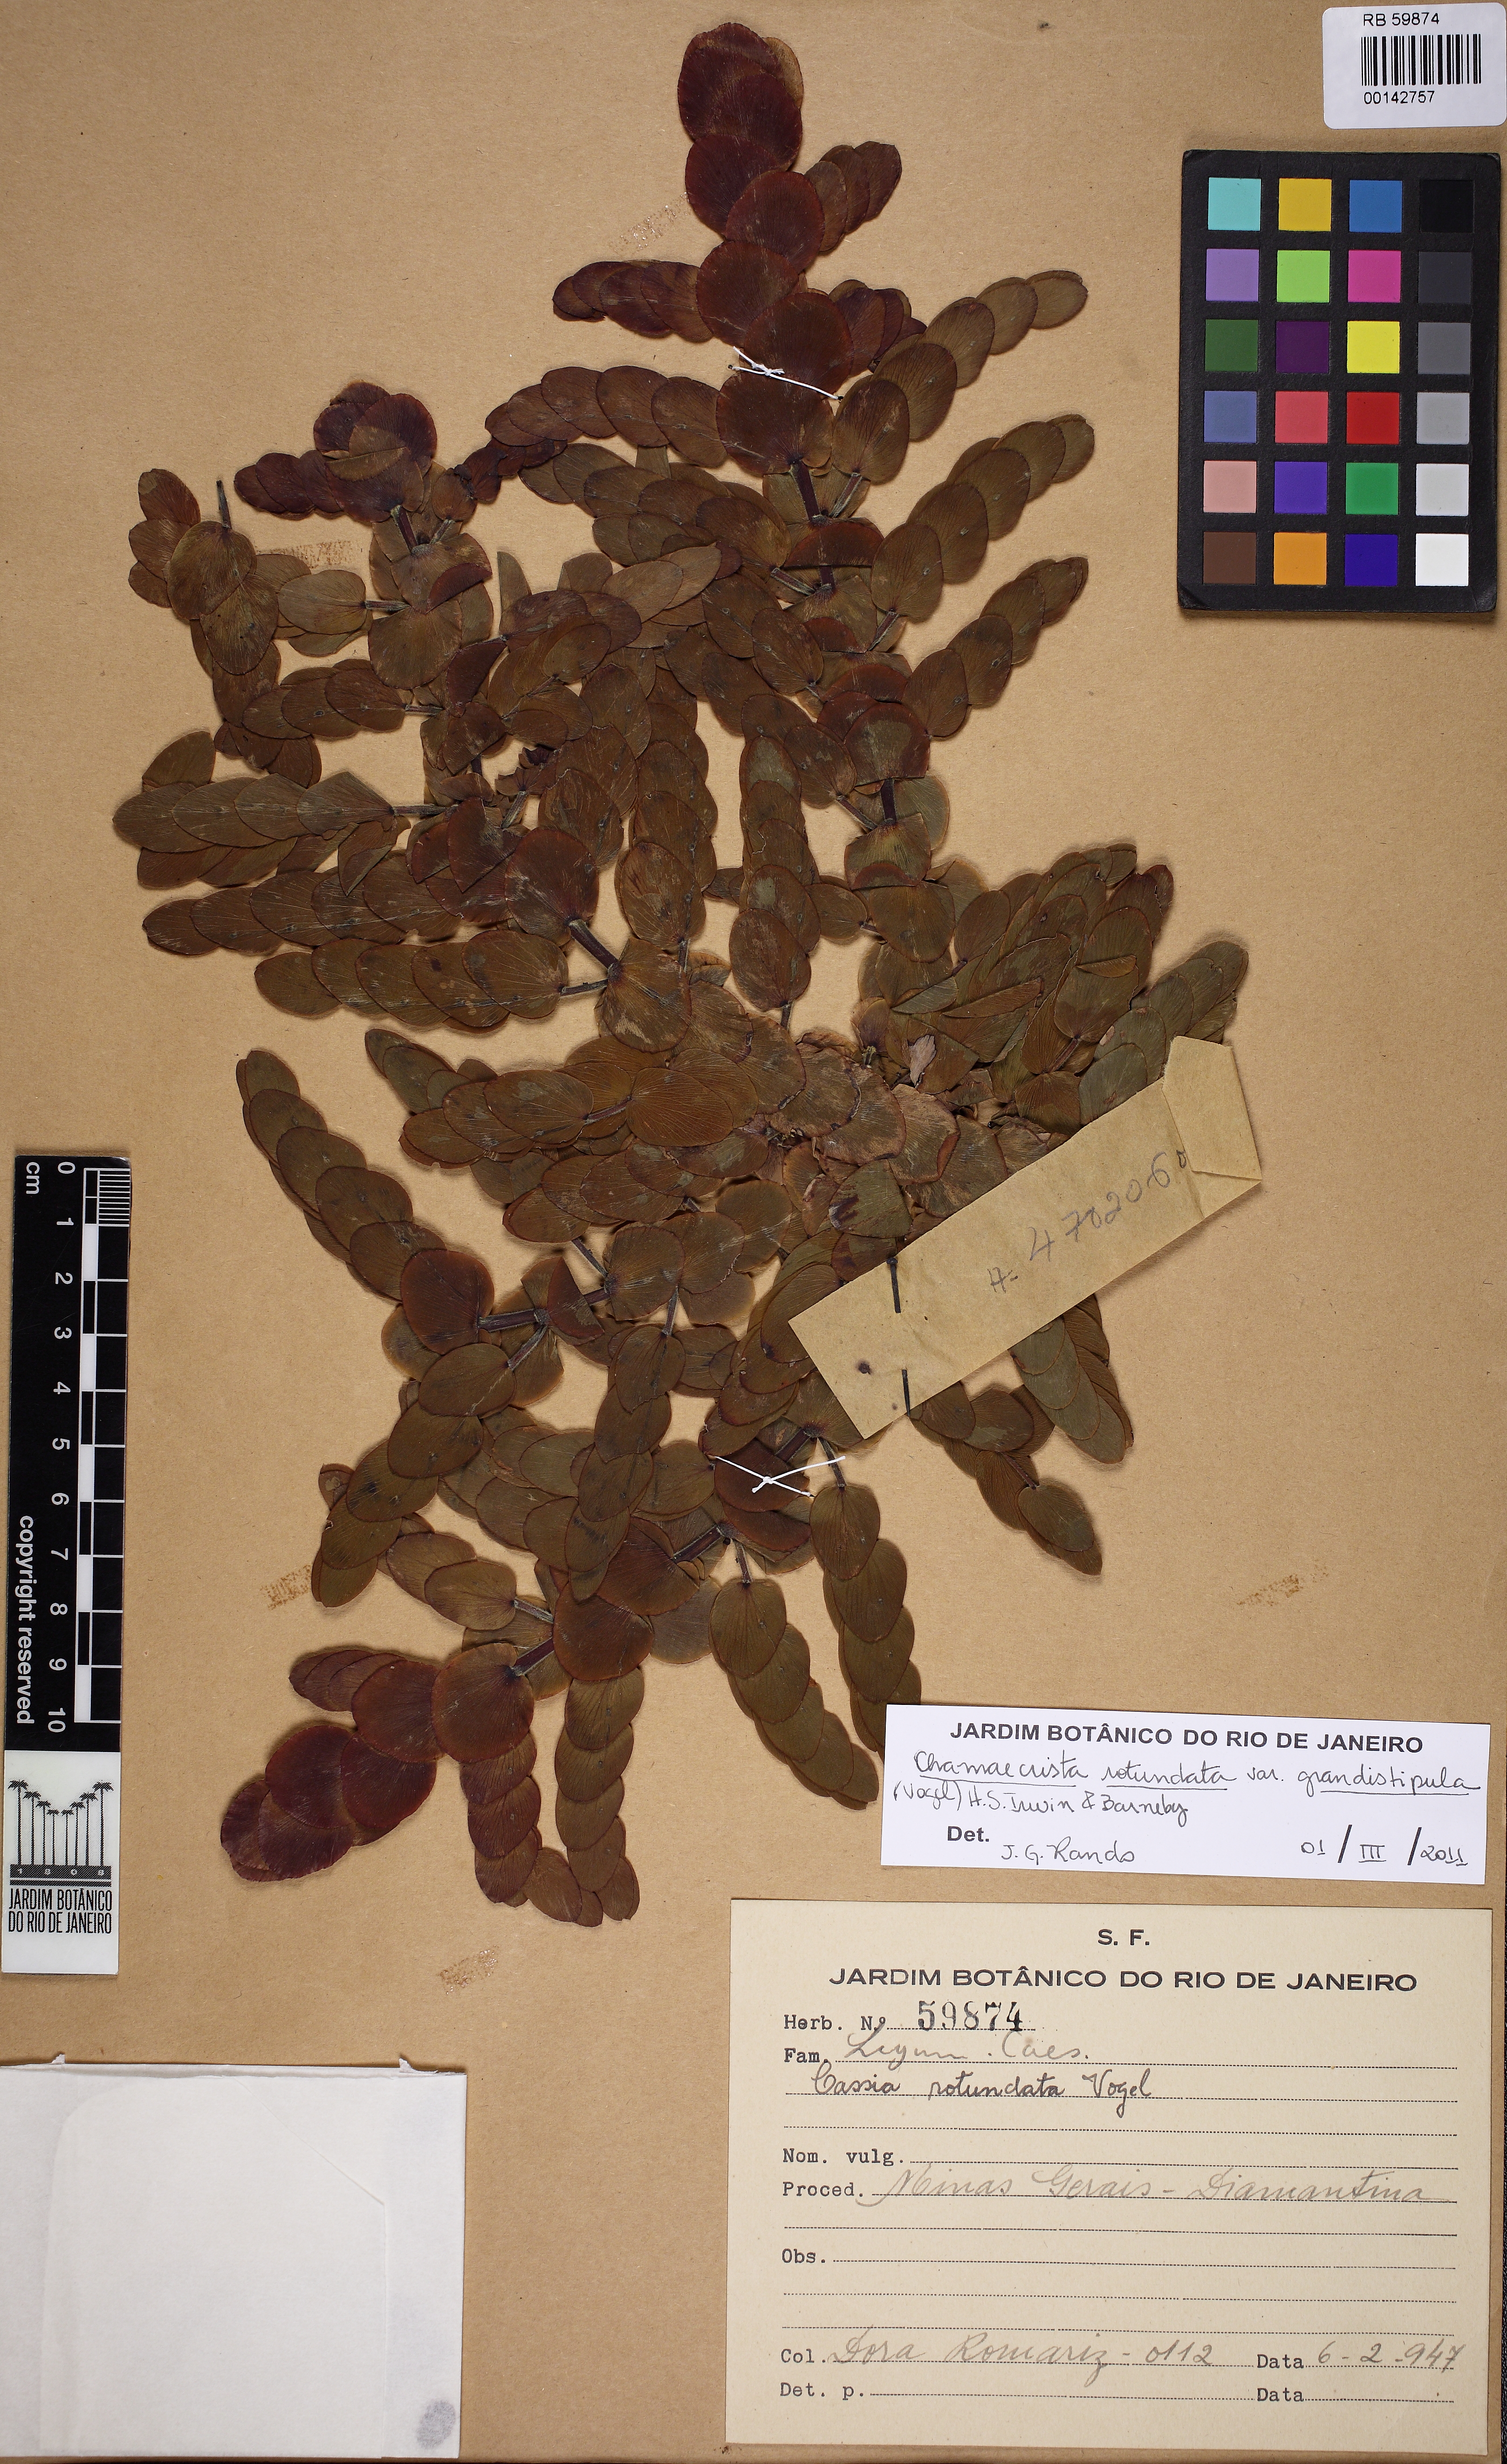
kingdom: Plantae
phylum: Tracheophyta
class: Magnoliopsida
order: Fabales
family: Fabaceae
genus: Chamaecrista
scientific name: Chamaecrista rotundata
